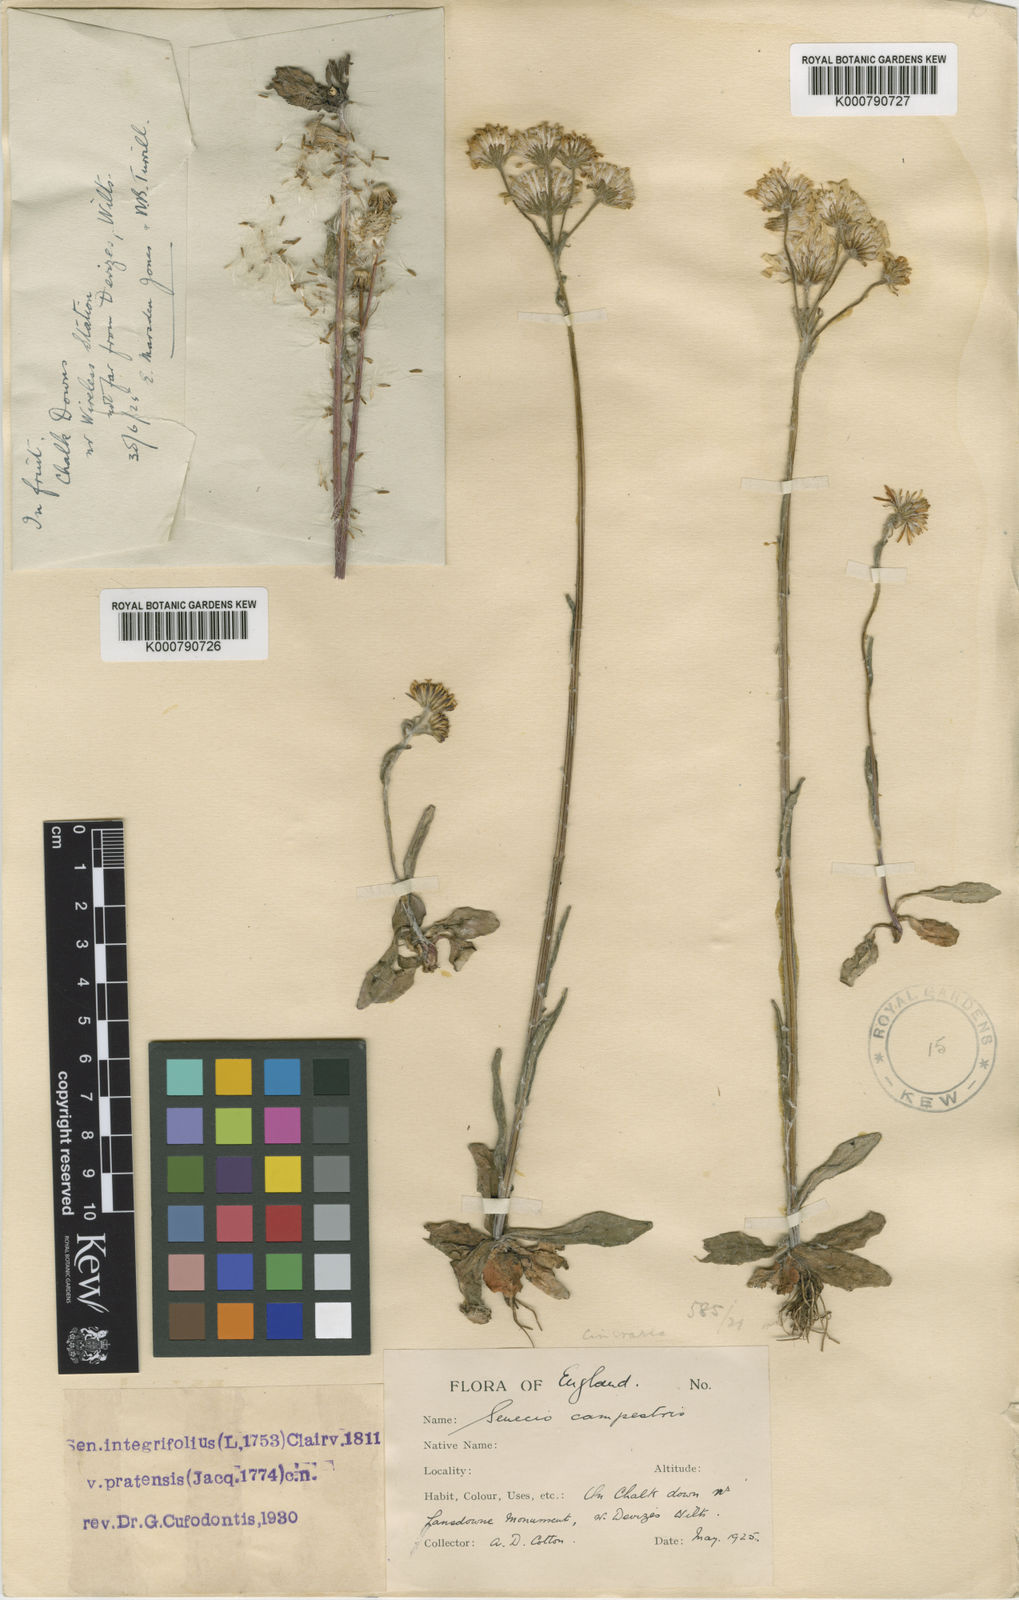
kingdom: Plantae
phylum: Tracheophyta
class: Magnoliopsida
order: Asterales
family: Asteraceae
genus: Tephroseris
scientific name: Tephroseris integrifolia
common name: Field fleawort
